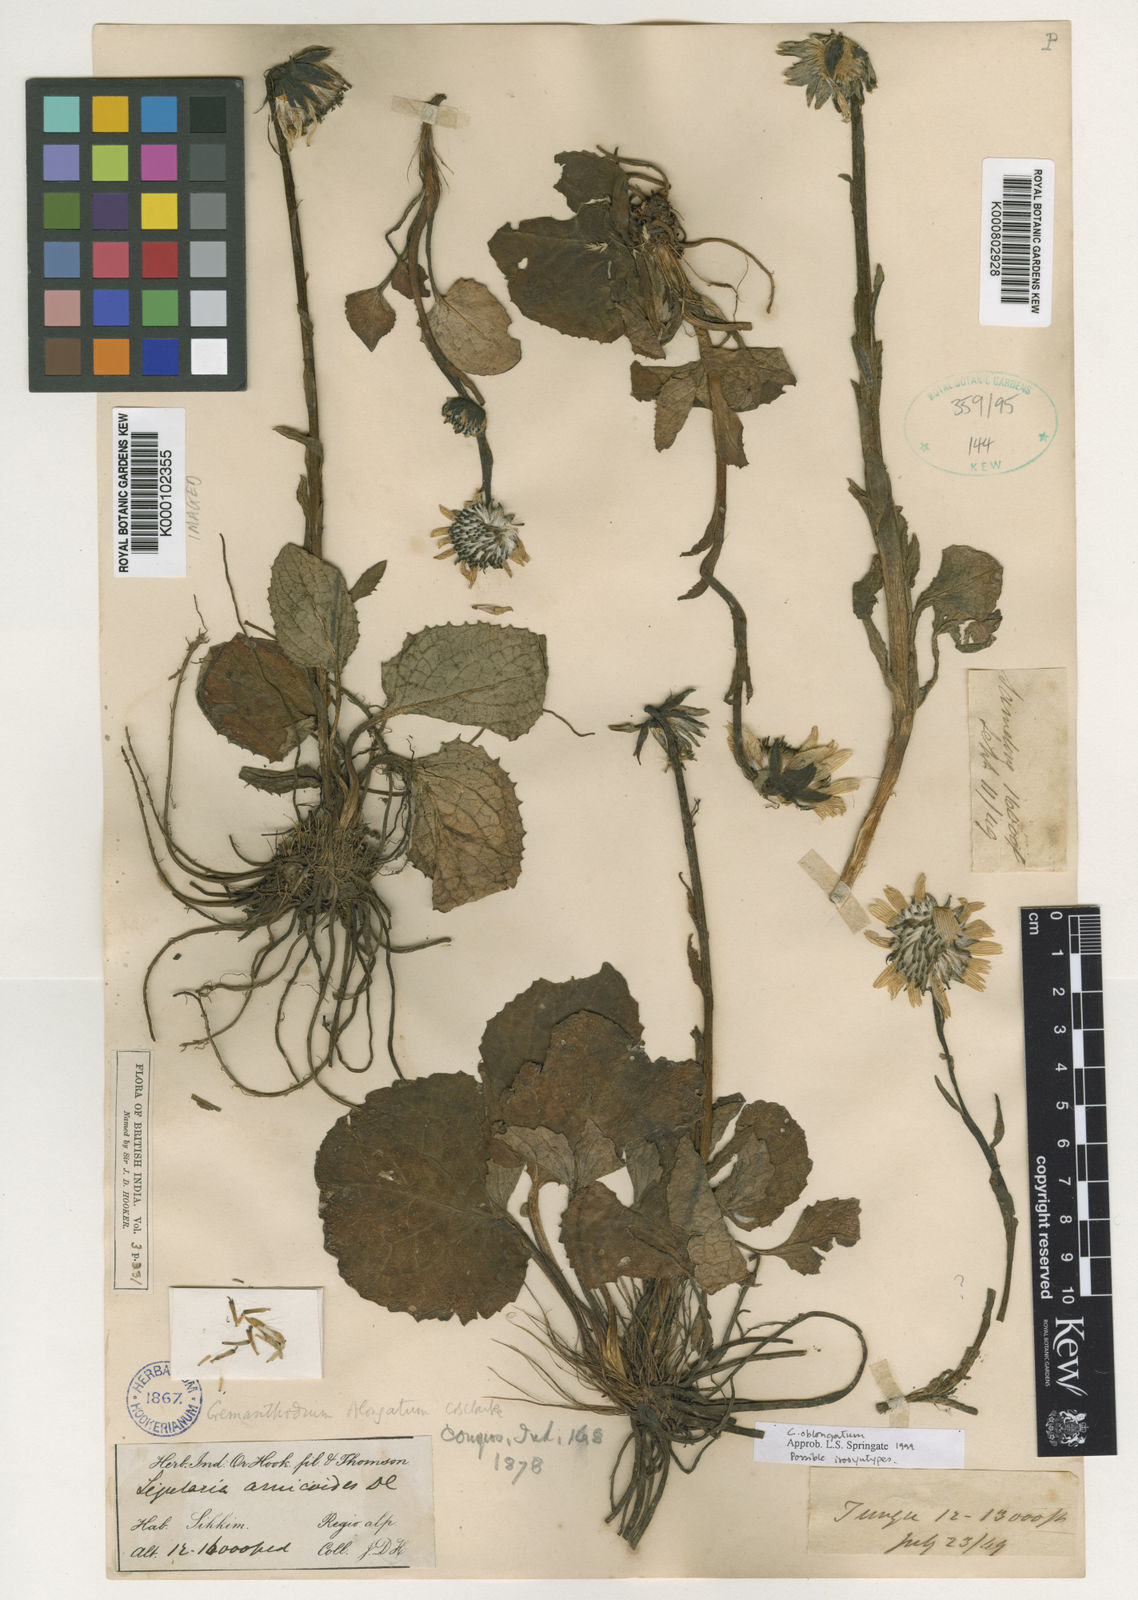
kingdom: Plantae
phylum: Tracheophyta
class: Magnoliopsida
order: Asterales
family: Asteraceae
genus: Cremanthodium
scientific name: Cremanthodium oblongatum
